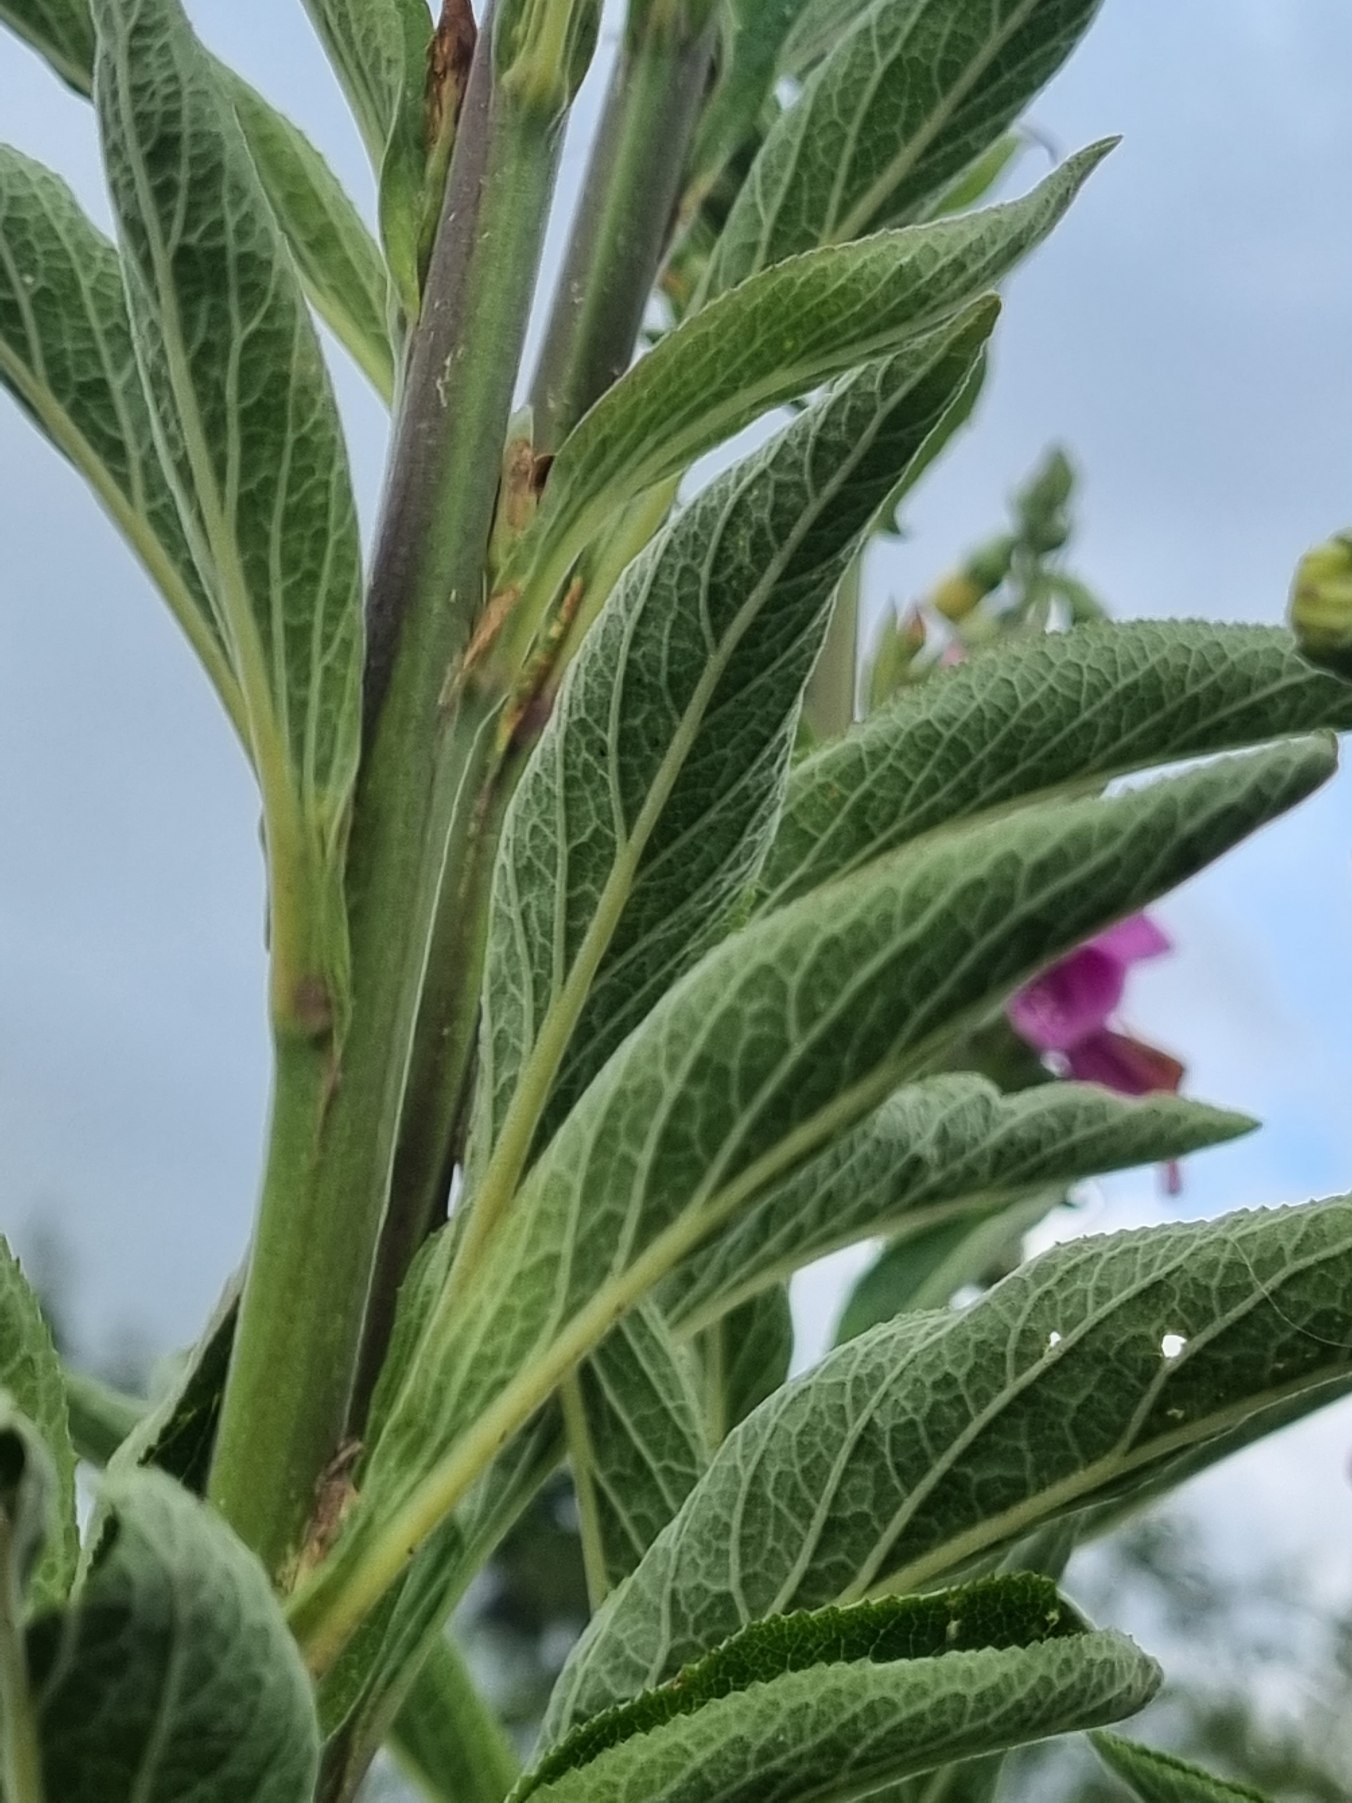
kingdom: Plantae
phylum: Tracheophyta
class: Magnoliopsida
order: Lamiales
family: Plantaginaceae
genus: Digitalis
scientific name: Digitalis purpurea
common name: Almindelig fingerbøl
